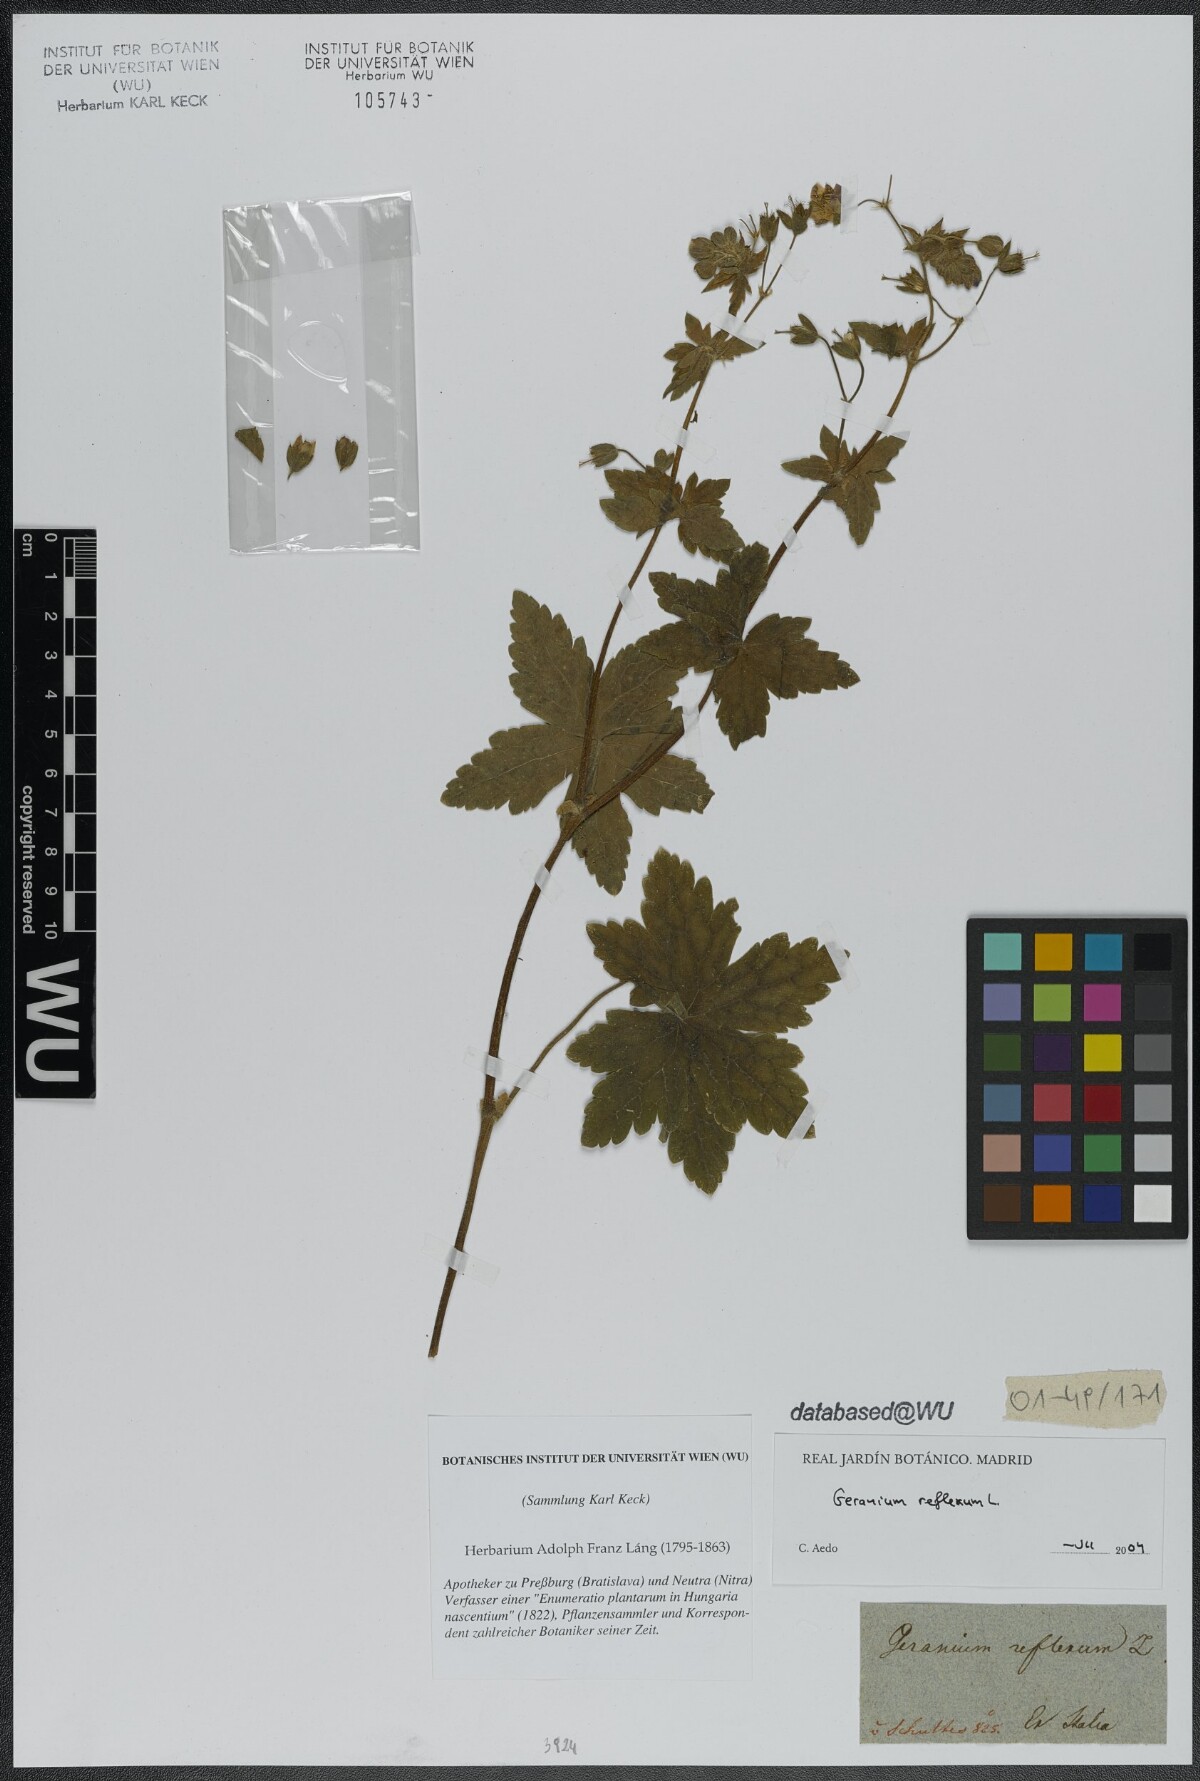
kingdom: Plantae
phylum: Tracheophyta
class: Magnoliopsida
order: Geraniales
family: Geraniaceae
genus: Geranium
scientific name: Geranium reflexum
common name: Reflexed crane's-bill
